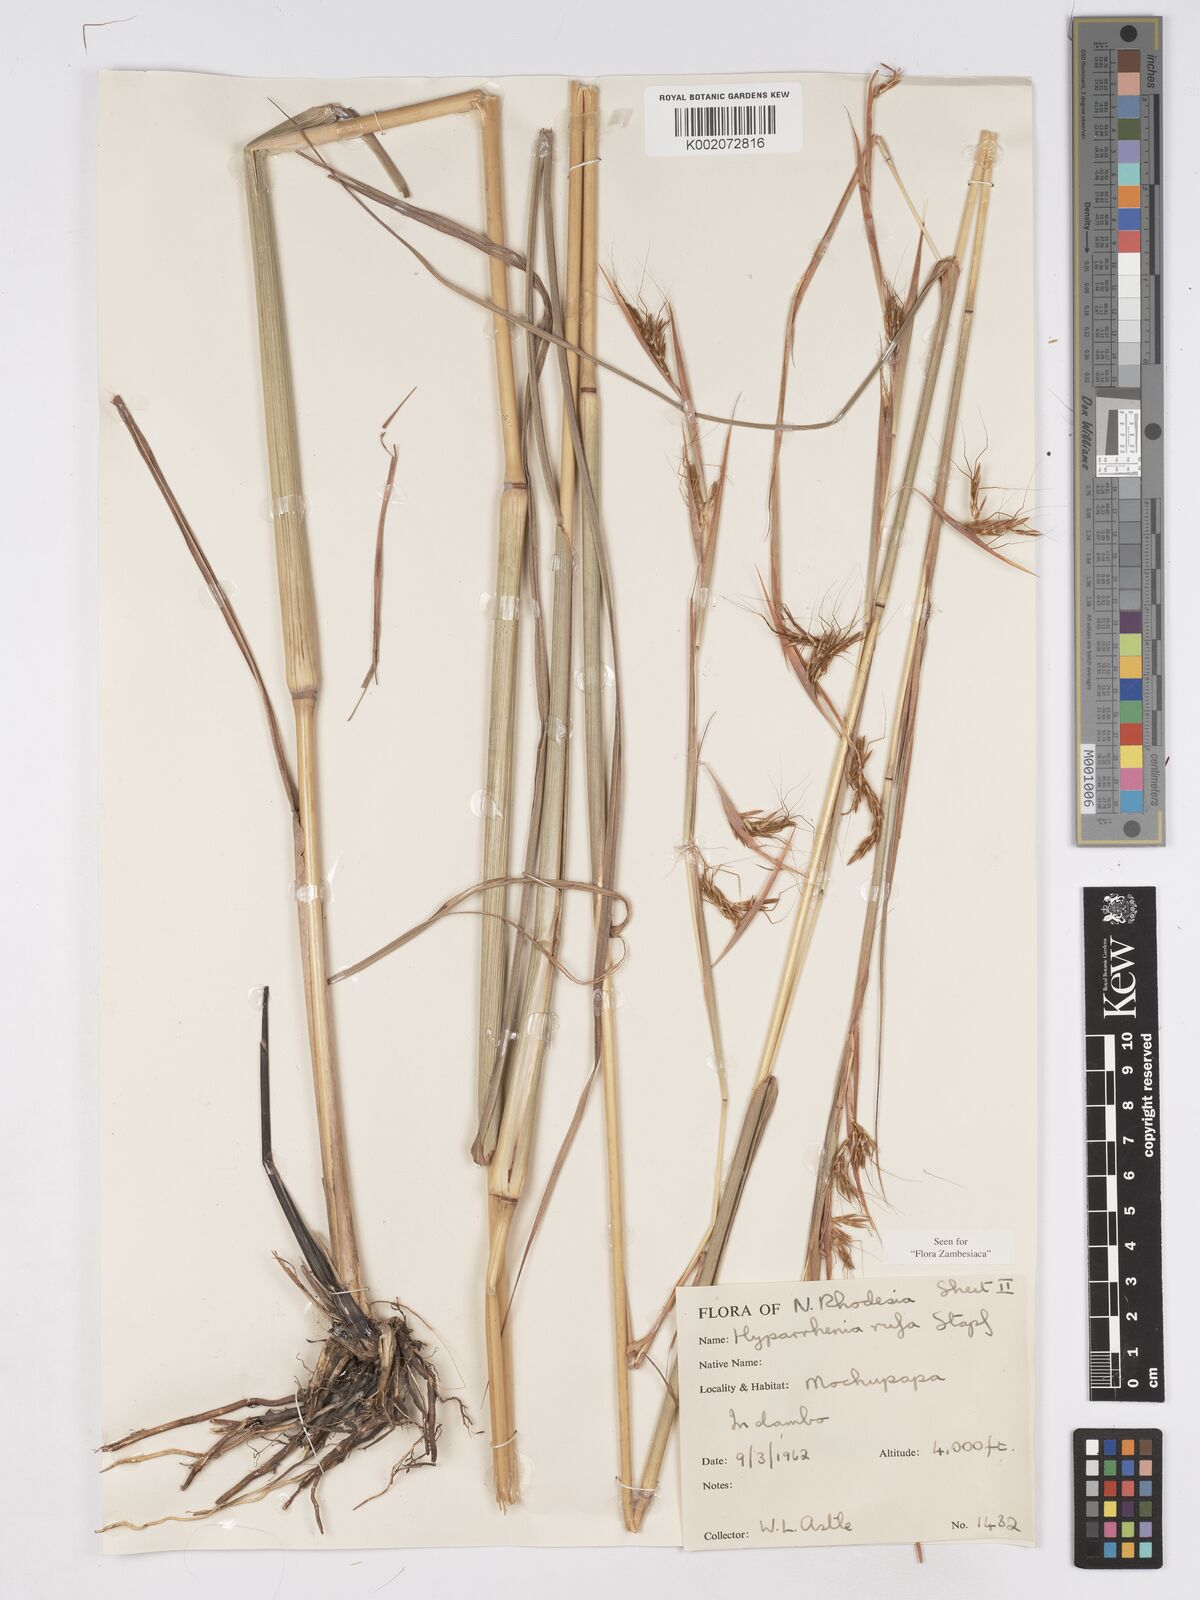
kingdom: Plantae
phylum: Tracheophyta
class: Liliopsida
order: Poales
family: Poaceae
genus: Hyparrhenia
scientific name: Hyparrhenia rufa
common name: Jaraguagrass
